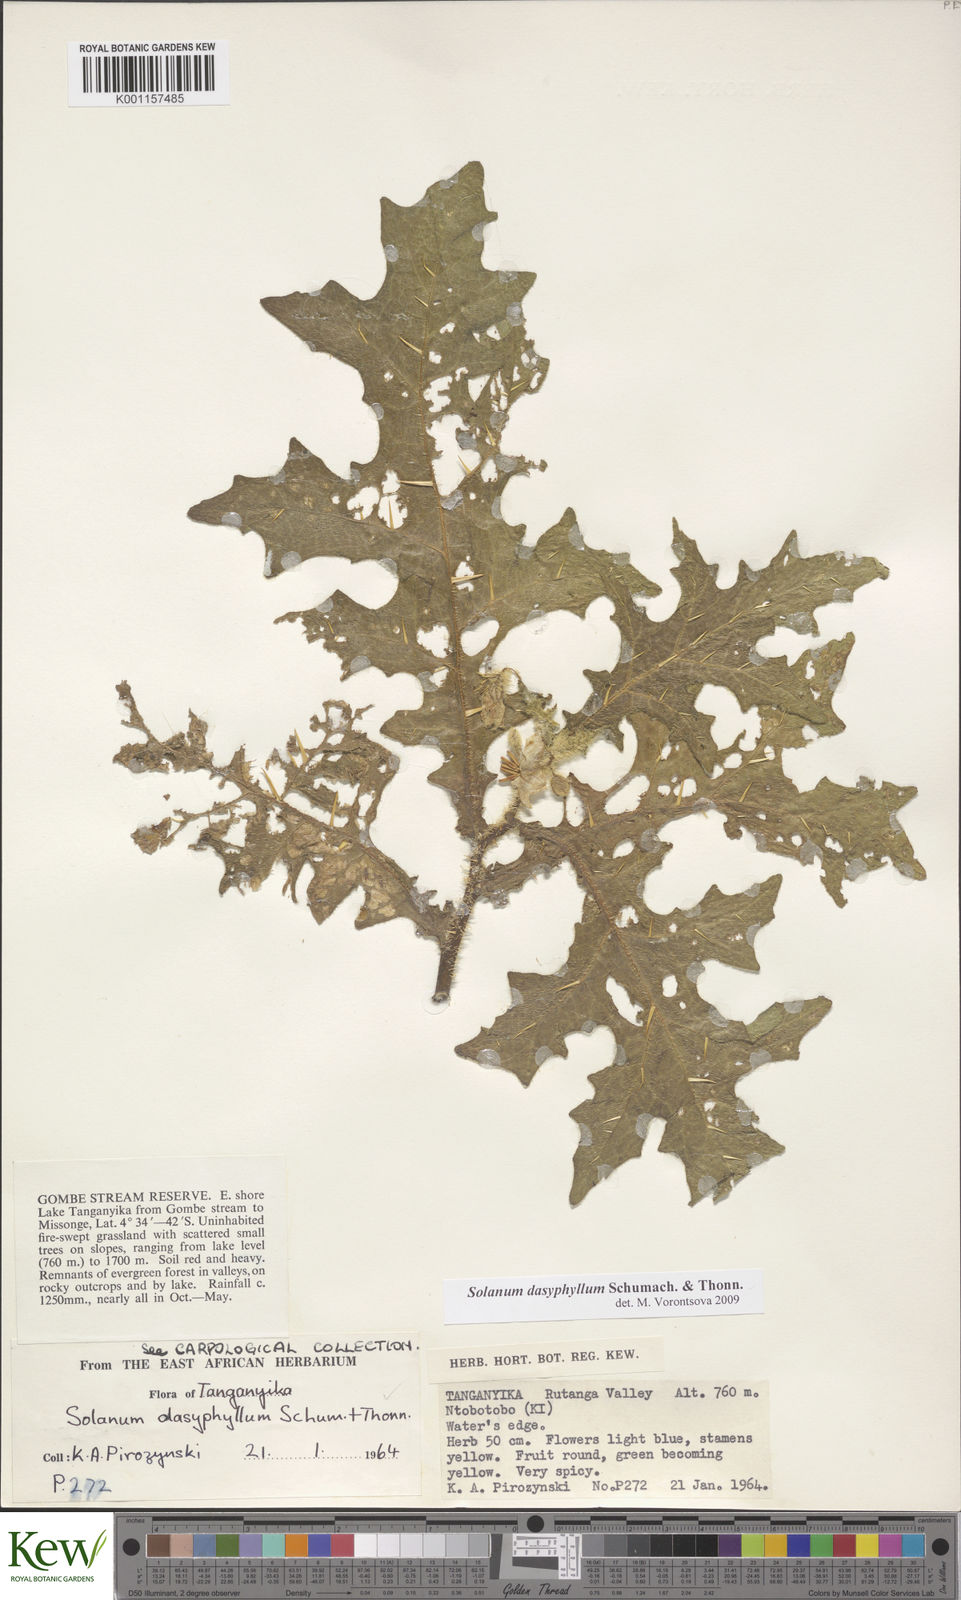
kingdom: Plantae
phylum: Tracheophyta
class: Magnoliopsida
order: Solanales
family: Solanaceae
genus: Solanum
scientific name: Solanum dasyphyllum
